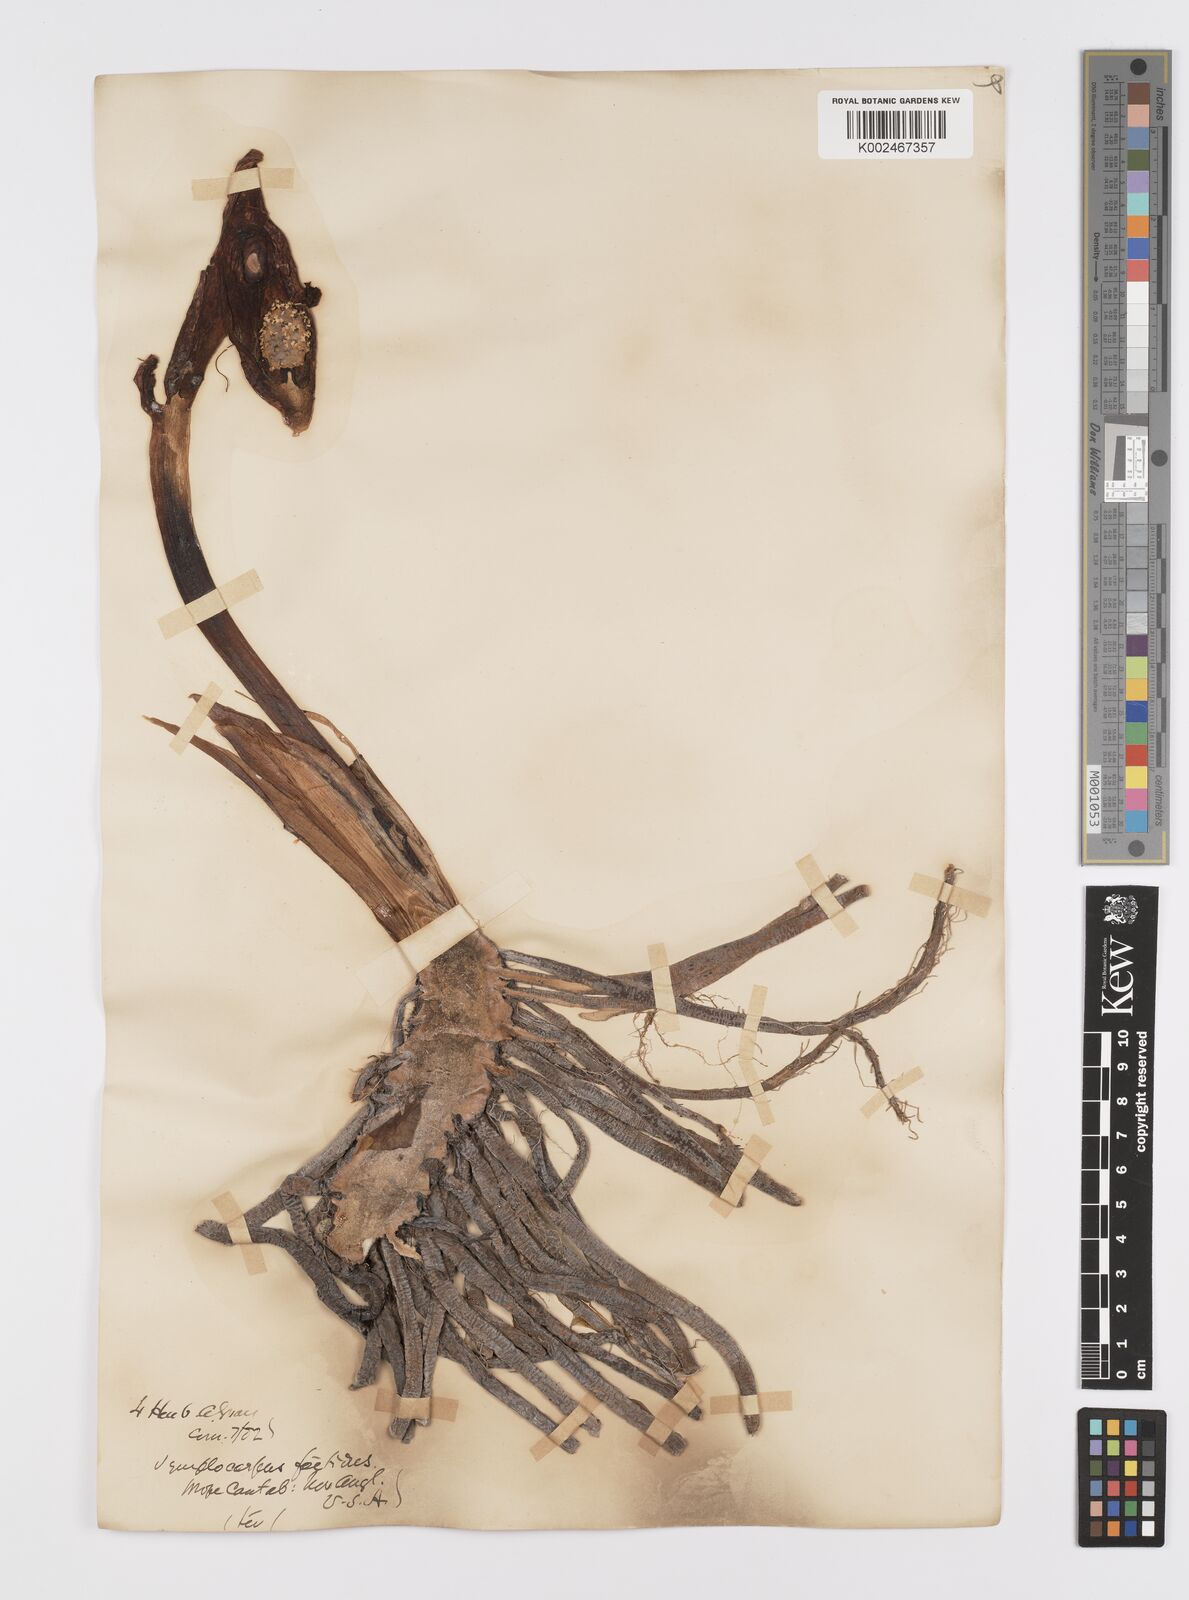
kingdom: Plantae
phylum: Tracheophyta
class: Liliopsida
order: Alismatales
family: Araceae
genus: Symplocarpus
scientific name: Symplocarpus foetidus
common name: Eastern skunk cabbage
